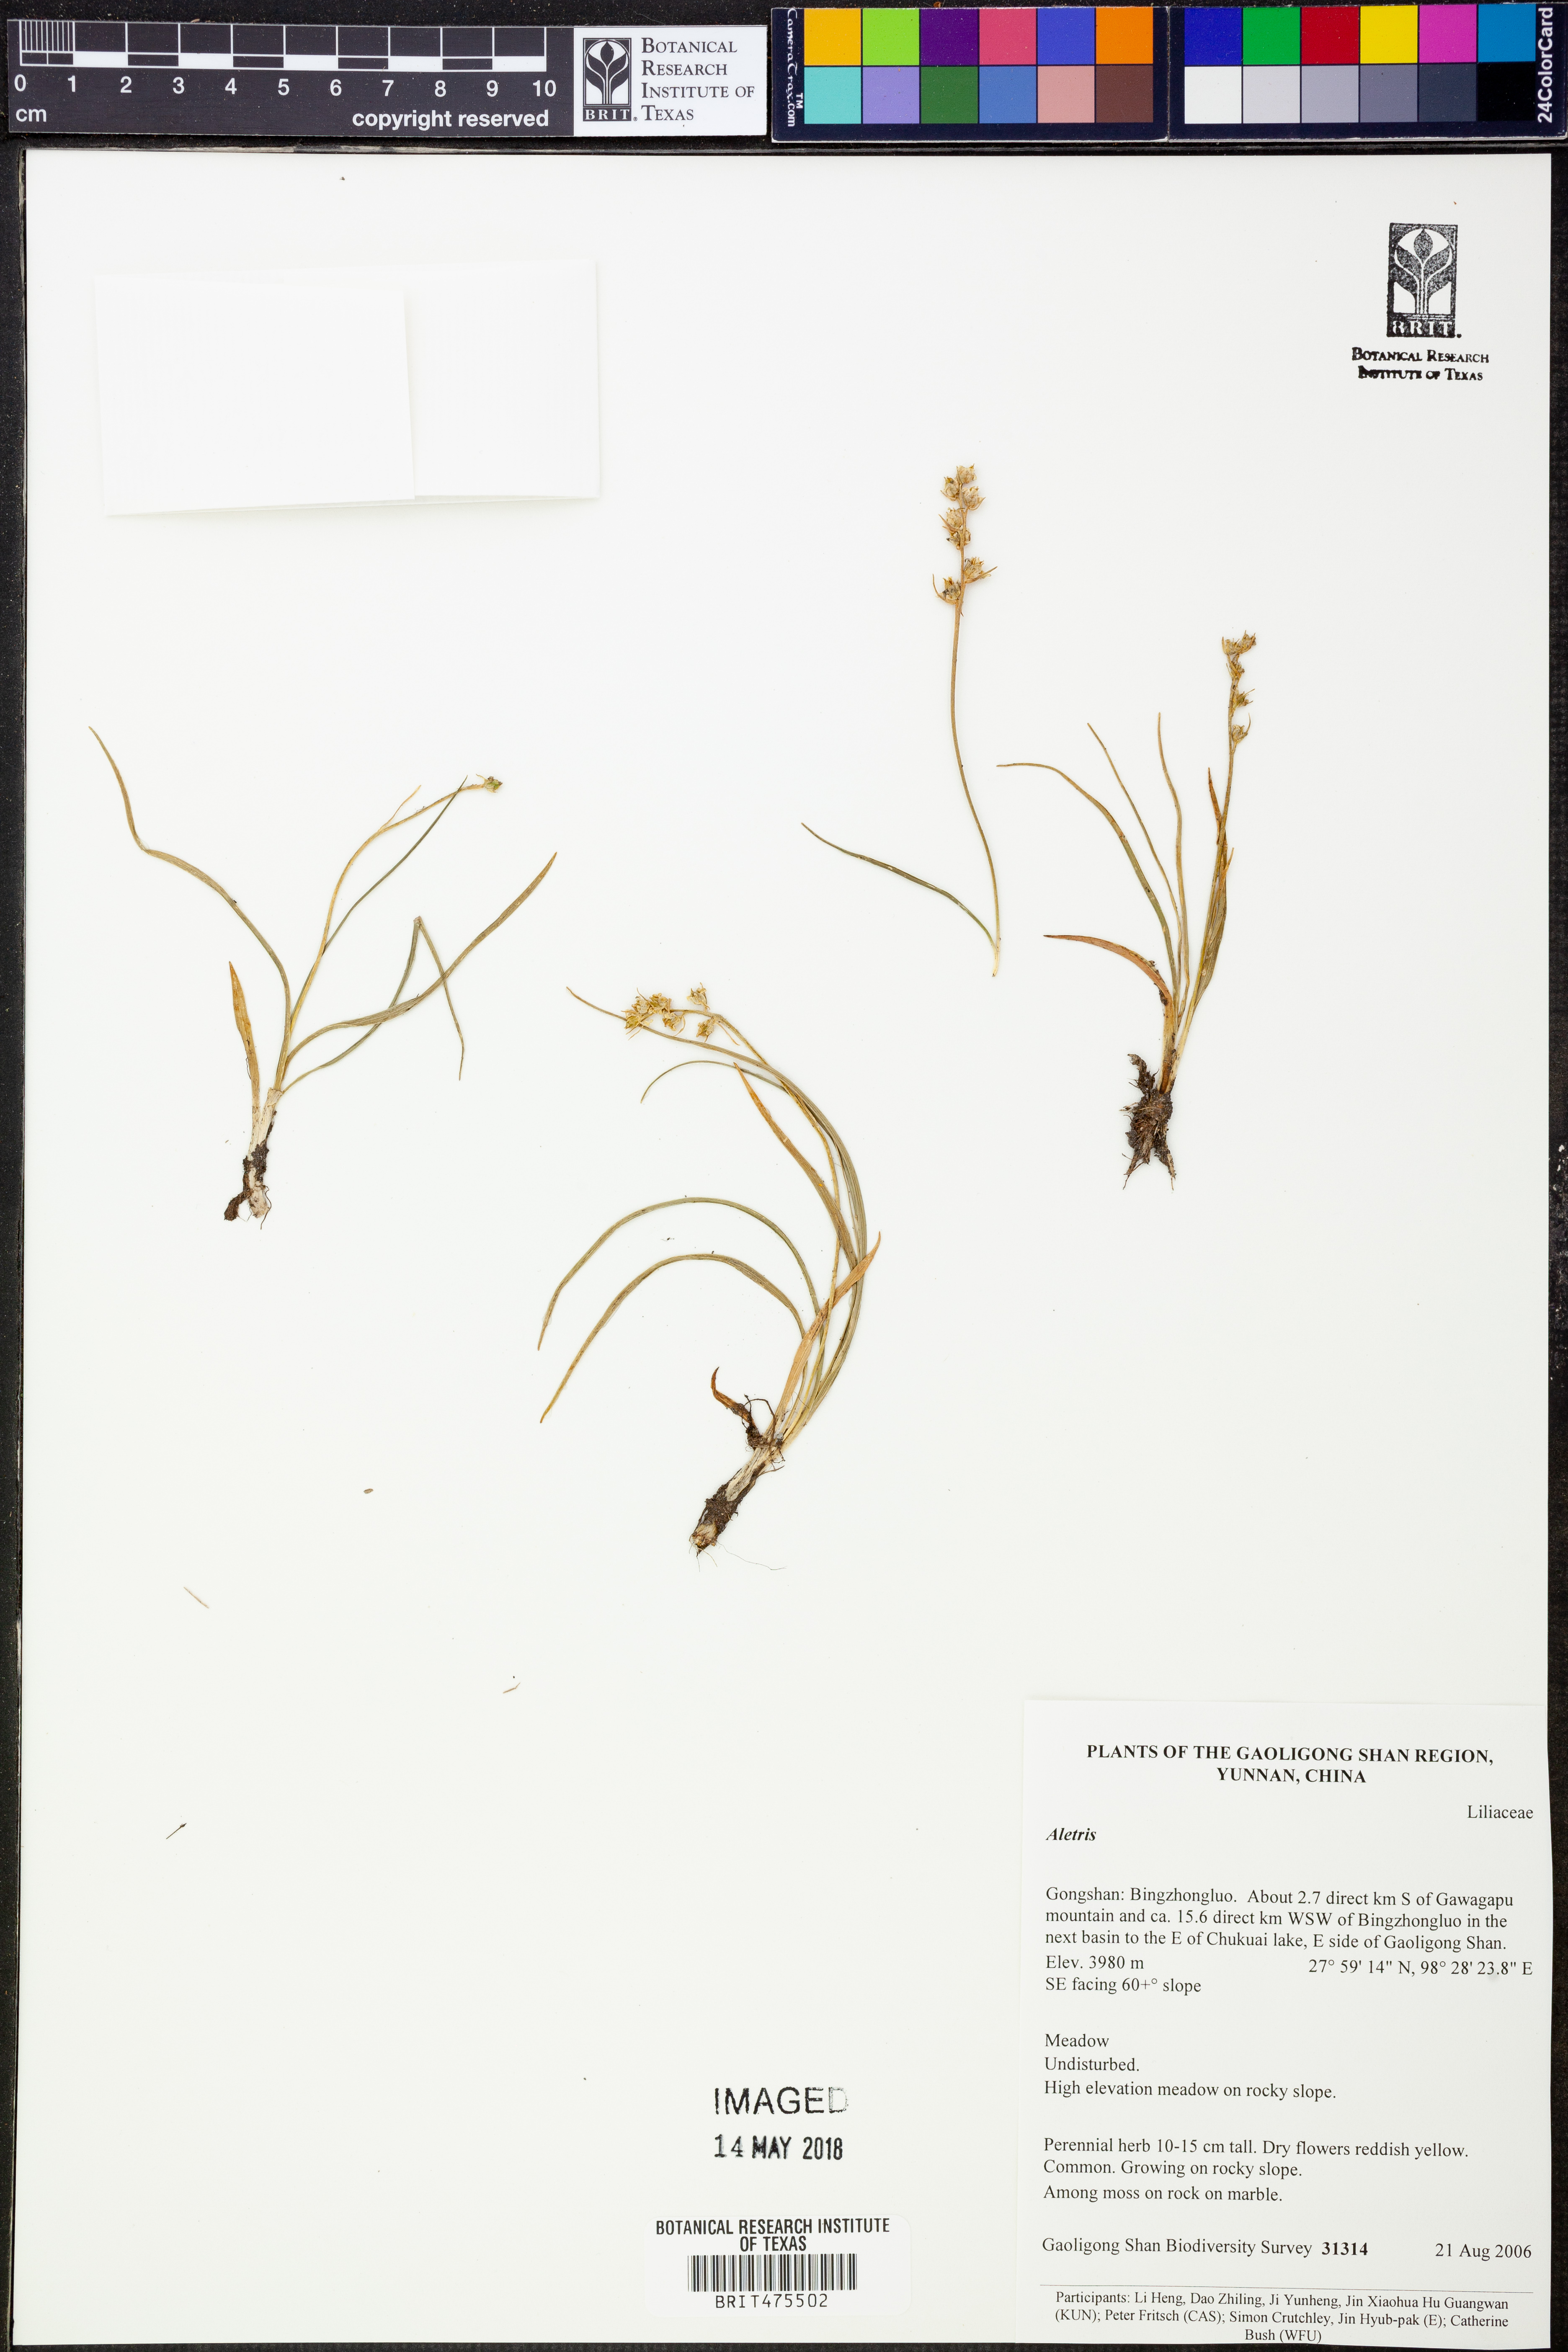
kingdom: Plantae
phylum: Tracheophyta
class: Liliopsida
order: Dioscoreales
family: Nartheciaceae
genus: Aletris
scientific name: Aletris
